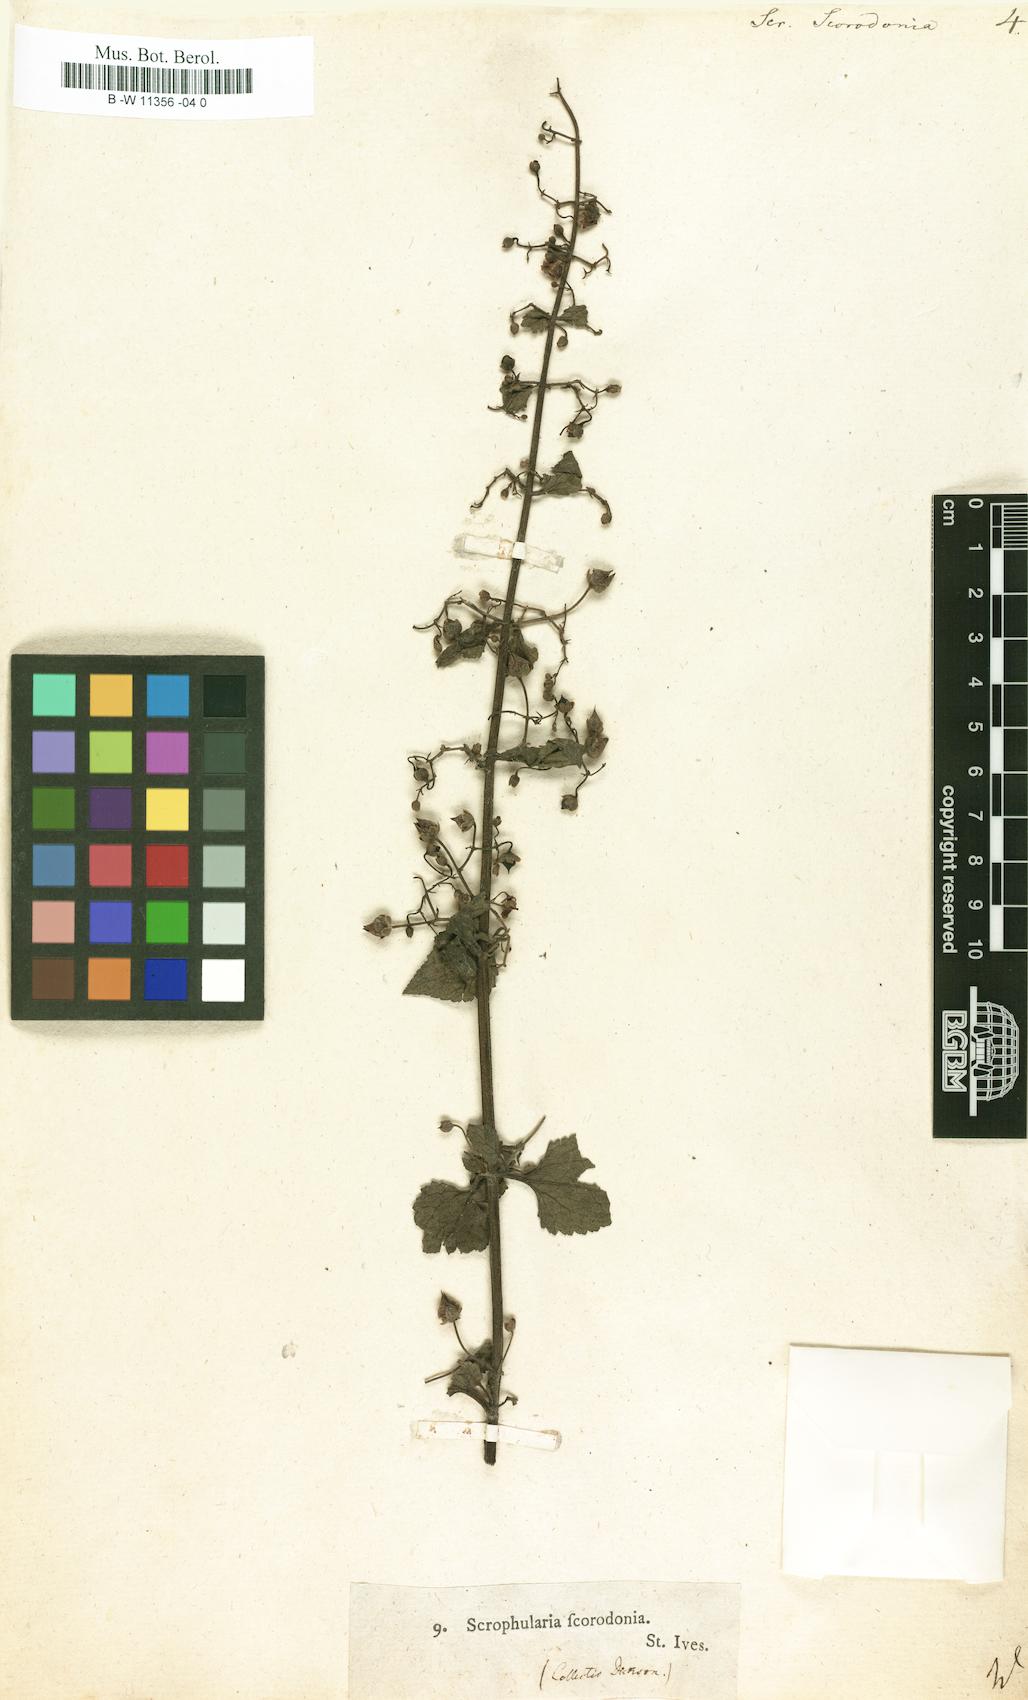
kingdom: Plantae
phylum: Tracheophyta
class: Magnoliopsida
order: Lamiales
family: Scrophulariaceae
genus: Scrophularia
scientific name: Scrophularia scorodonia
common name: Balm-leaved figwort
